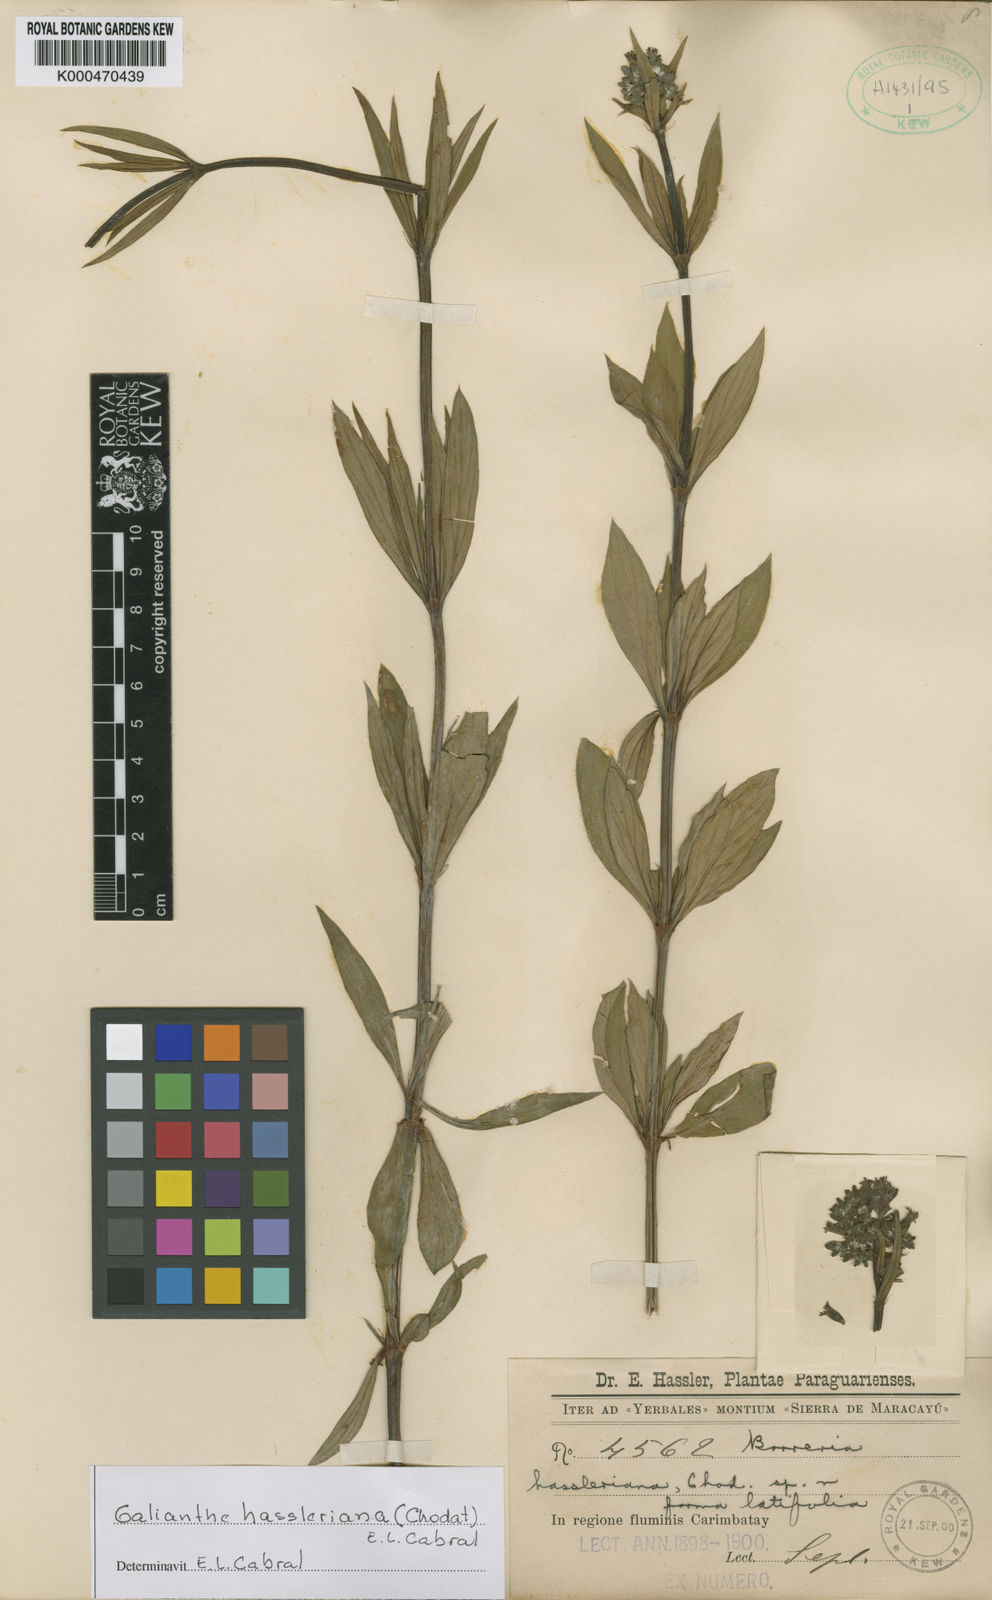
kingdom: Plantae
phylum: Tracheophyta
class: Magnoliopsida
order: Gentianales
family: Rubiaceae
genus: Galianthe
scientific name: Galianthe hassleriana
